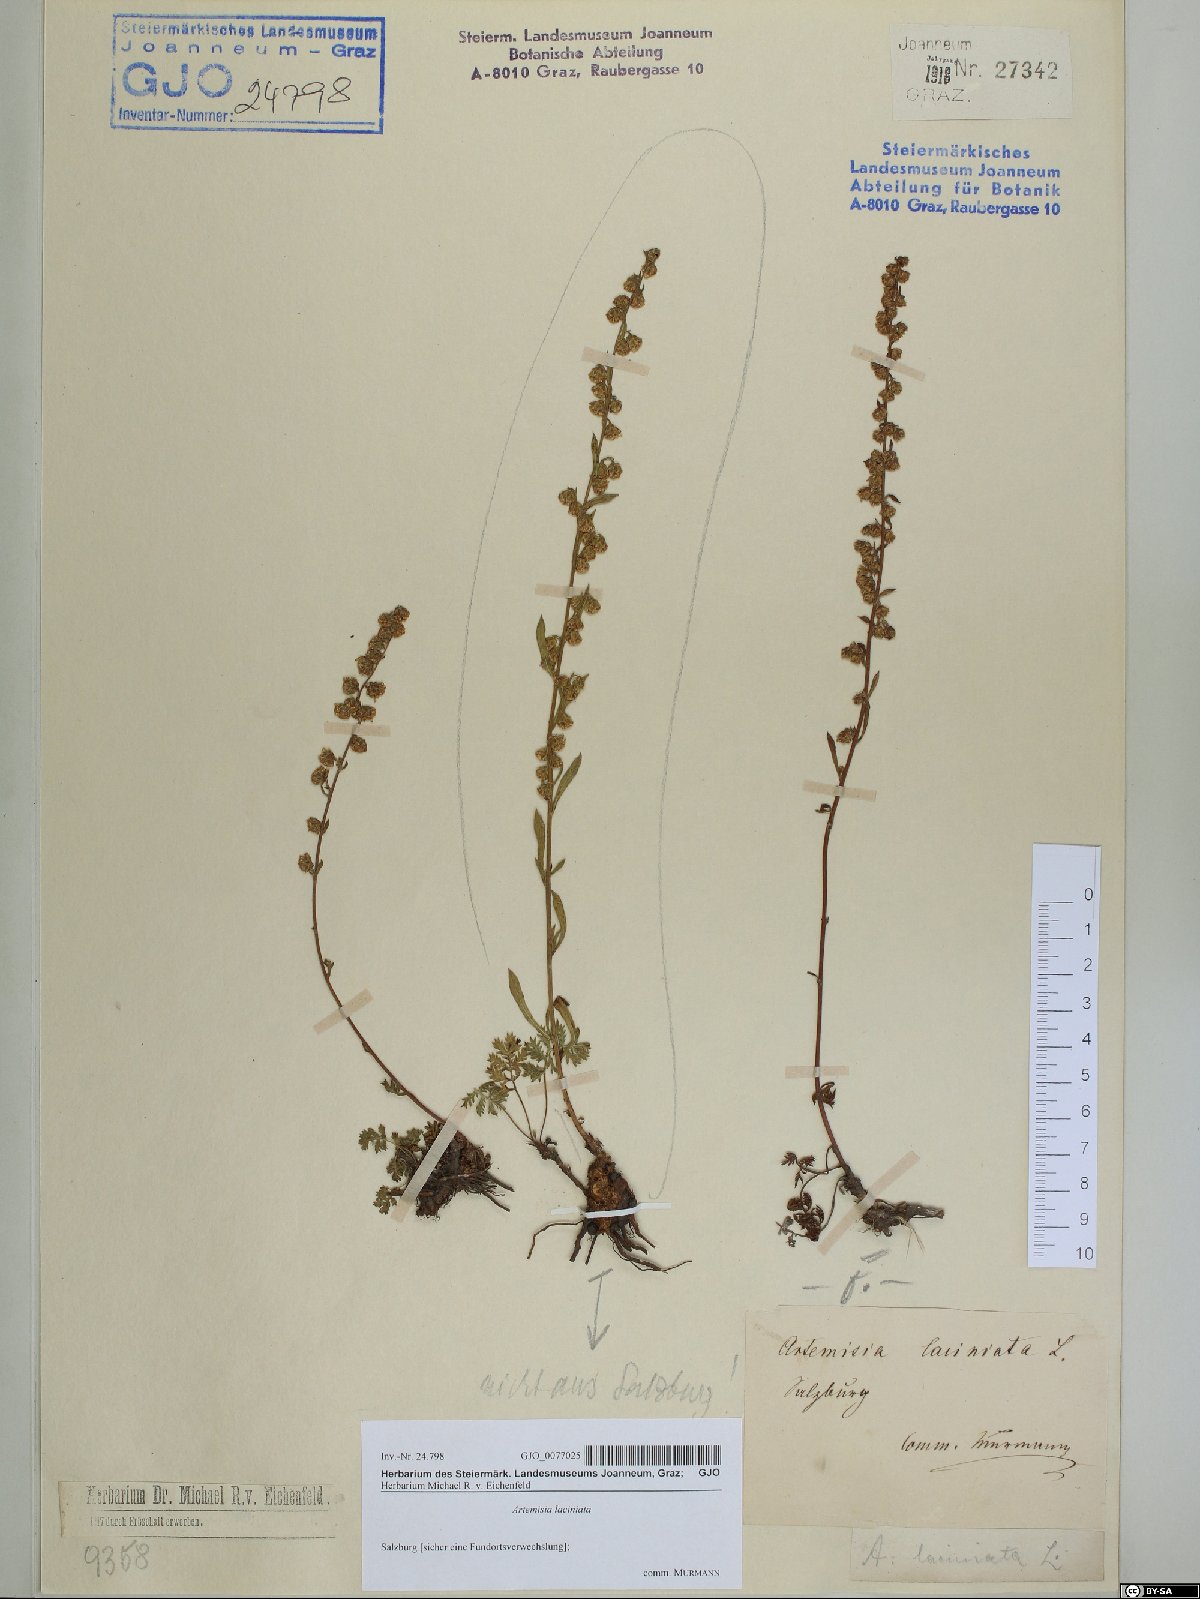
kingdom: Plantae
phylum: Tracheophyta
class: Magnoliopsida
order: Asterales
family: Asteraceae
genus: Artemisia
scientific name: Artemisia laciniata
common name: Siberian wormwood
